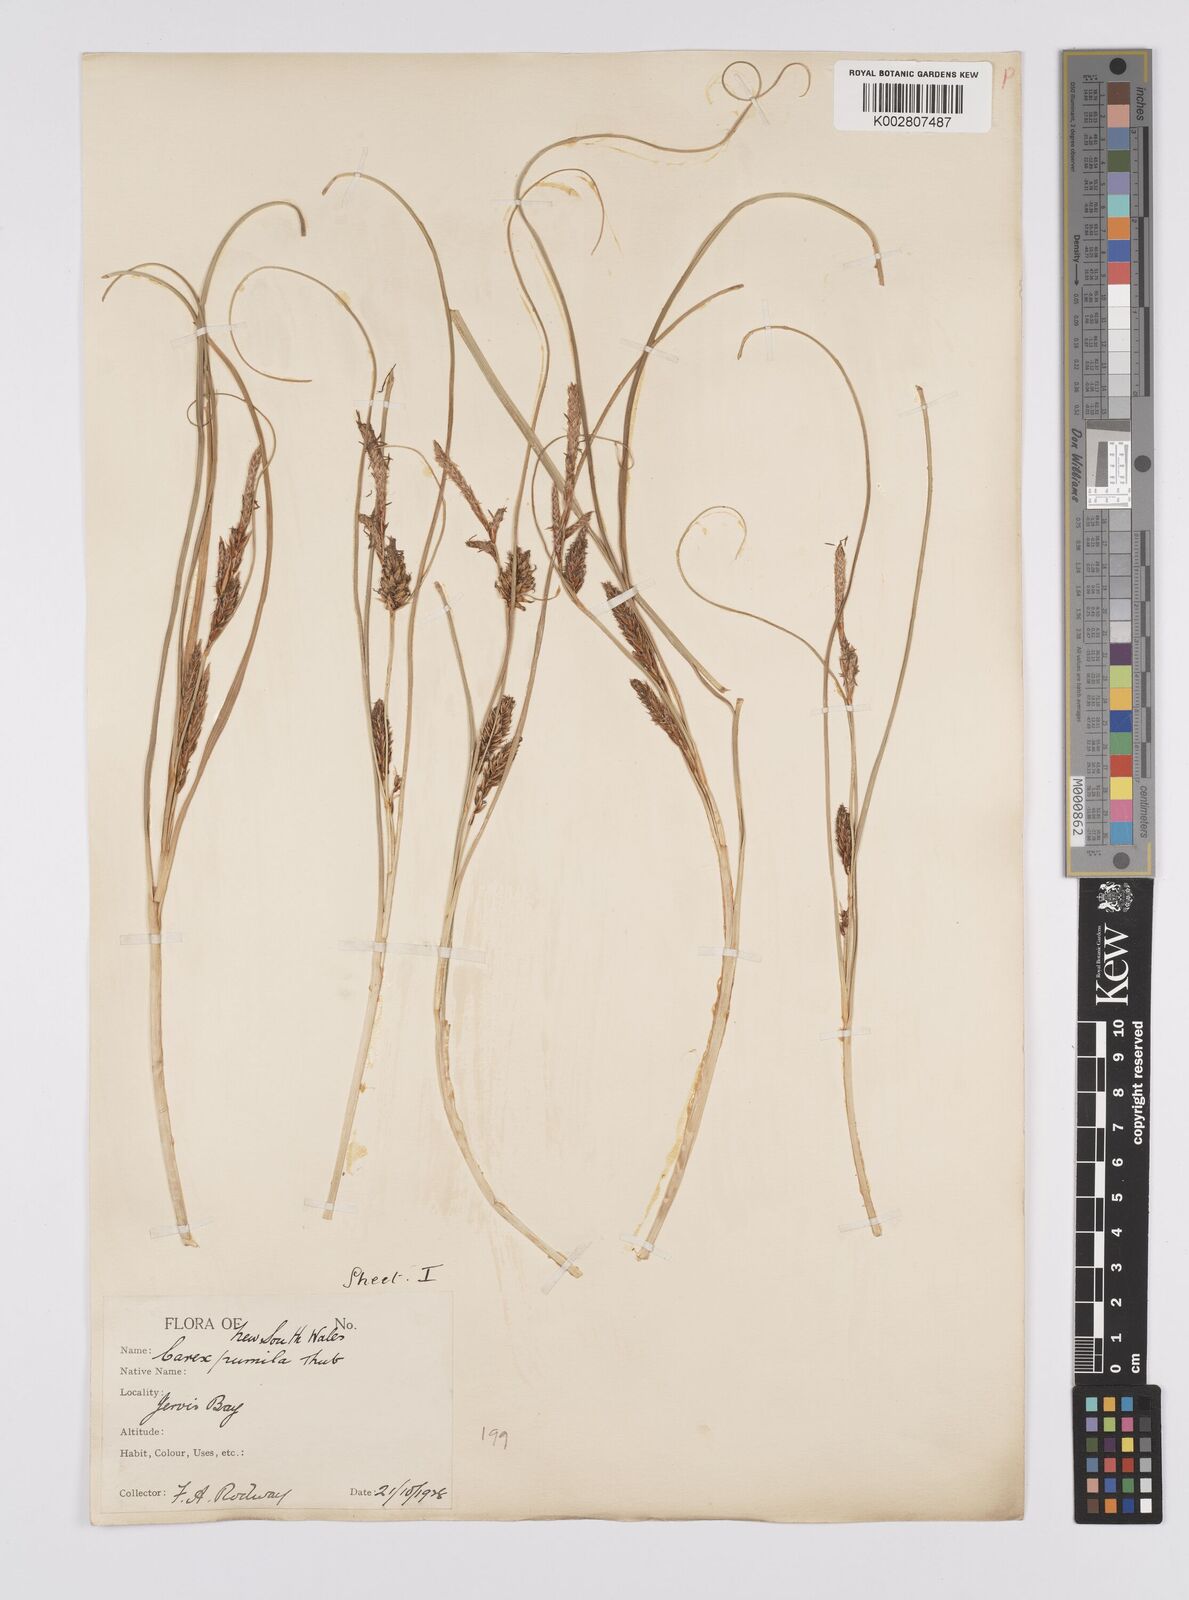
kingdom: Plantae
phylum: Tracheophyta
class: Liliopsida
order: Poales
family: Cyperaceae
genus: Carex
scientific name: Carex pumila
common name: Dwarf sedge
